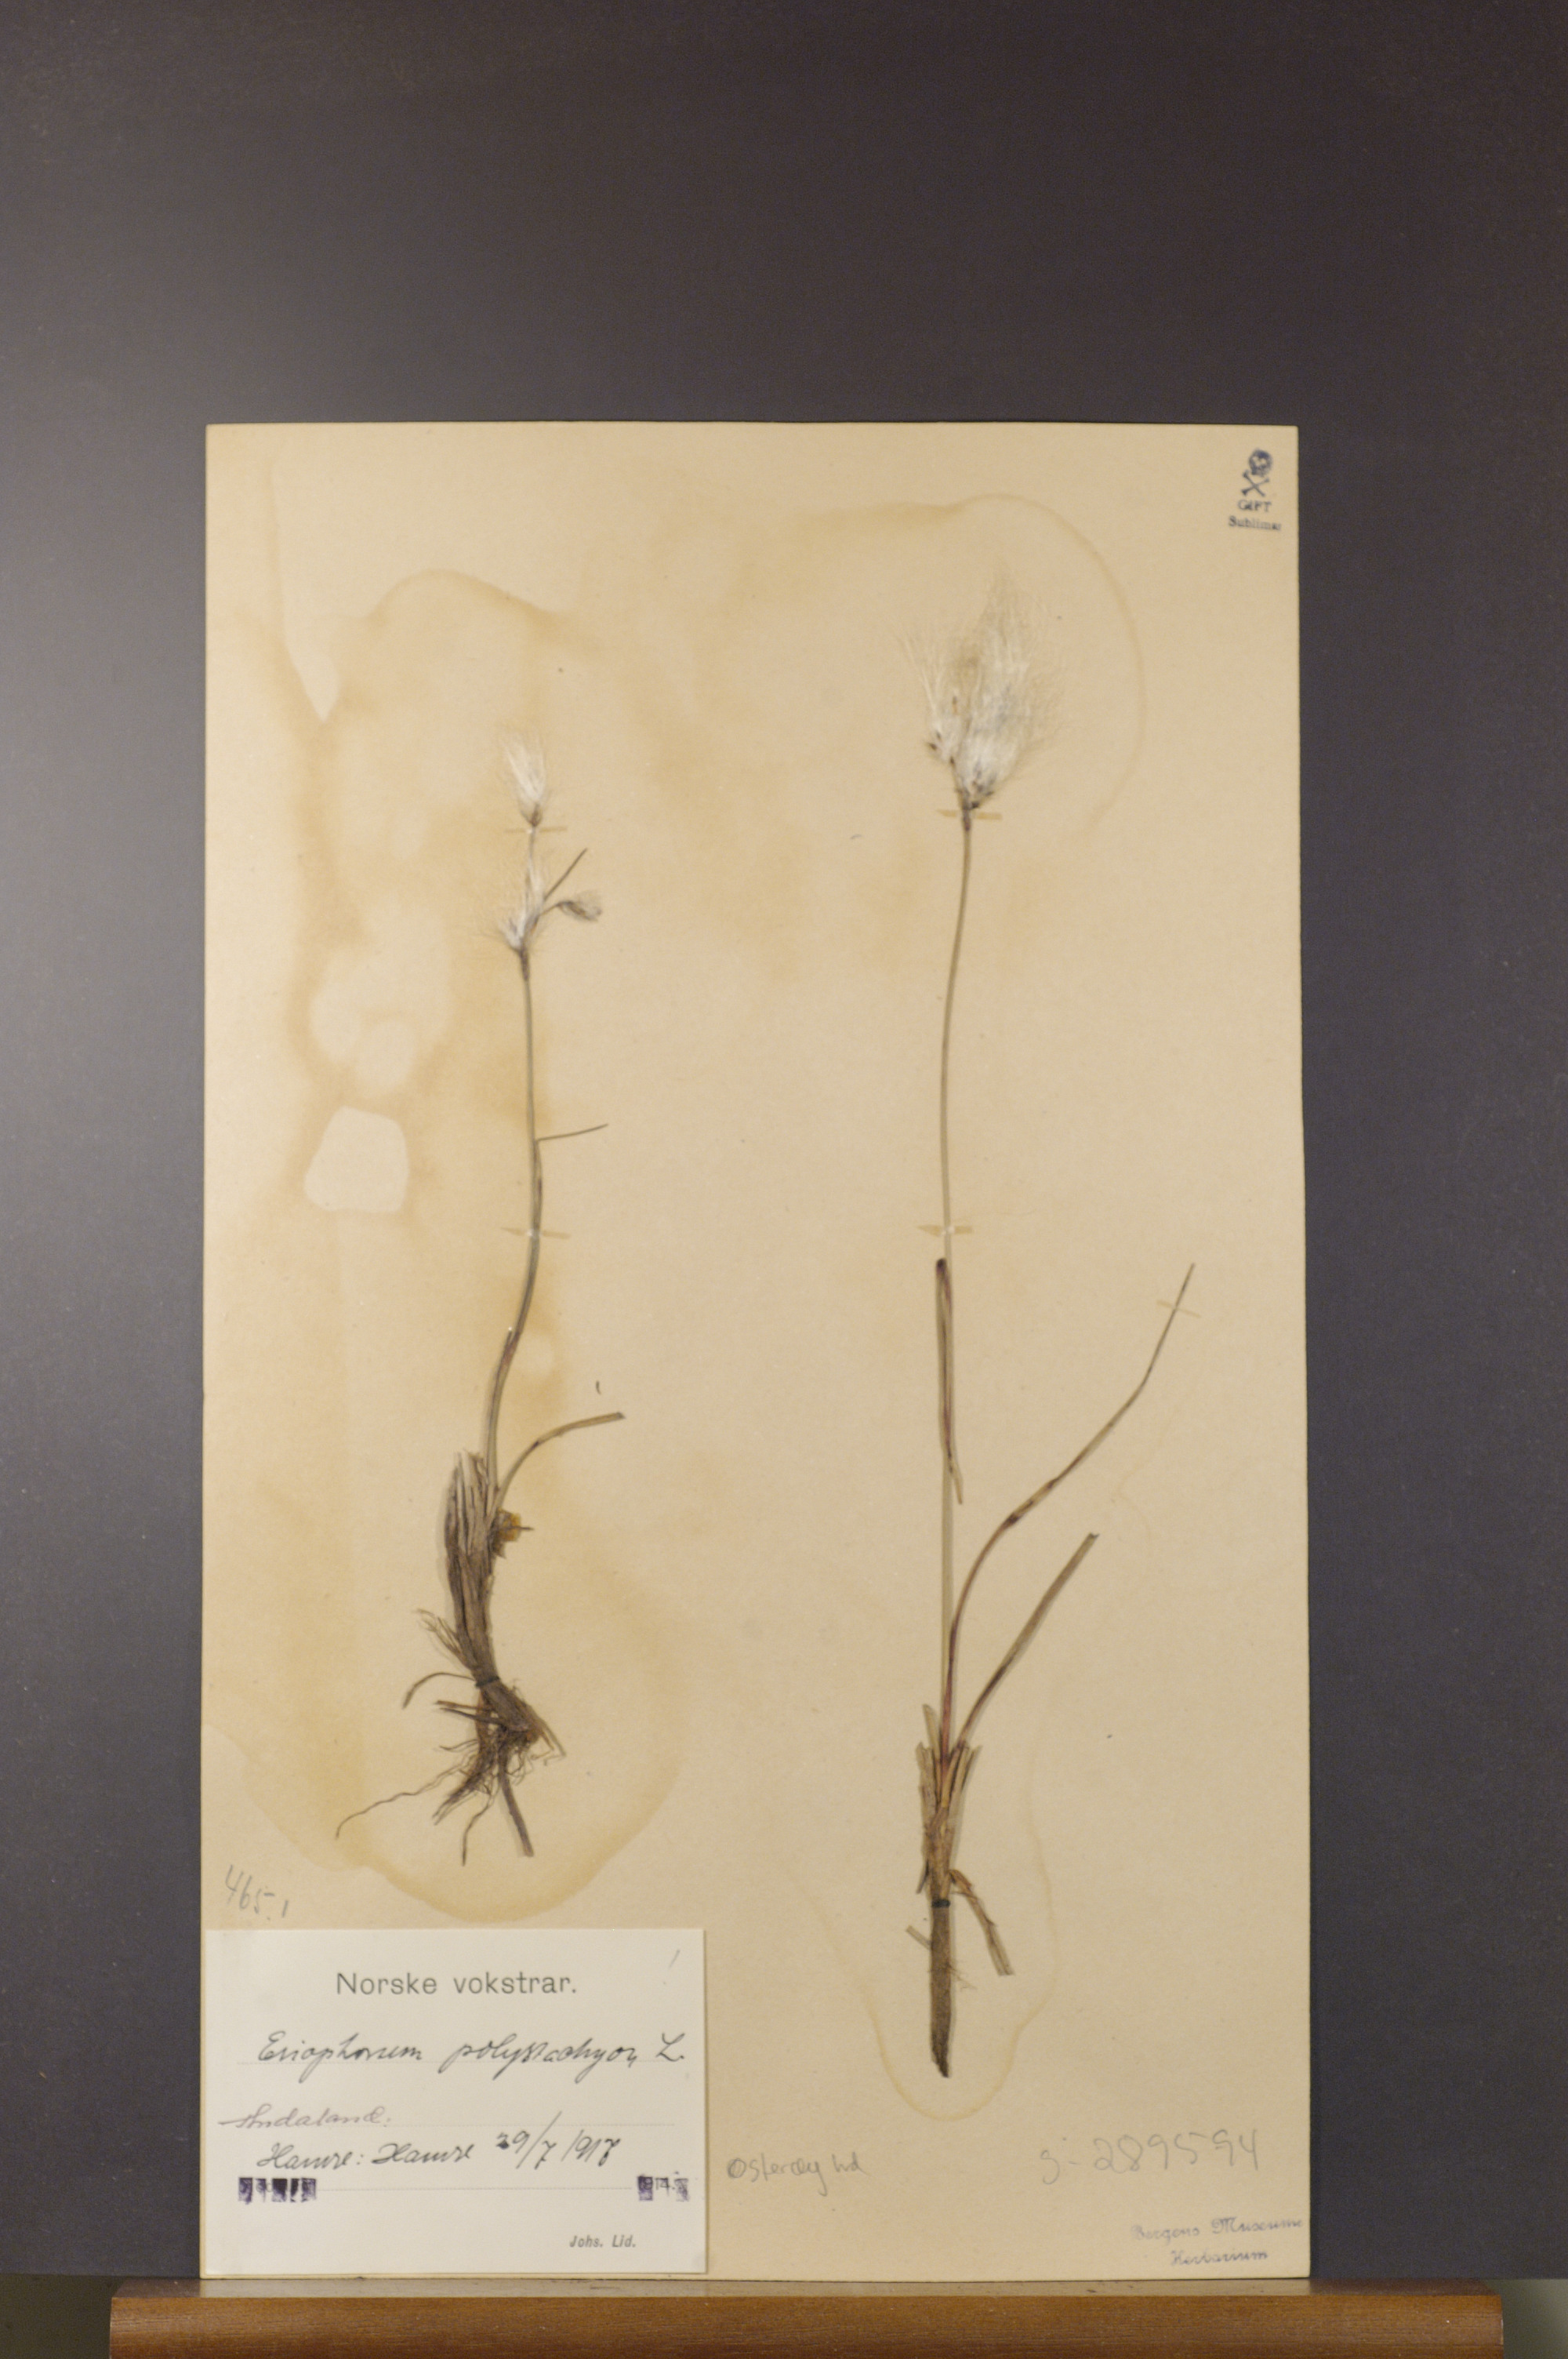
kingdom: Plantae
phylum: Tracheophyta
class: Liliopsida
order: Poales
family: Cyperaceae
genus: Eriophorum
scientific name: Eriophorum angustifolium
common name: Common cottongrass
